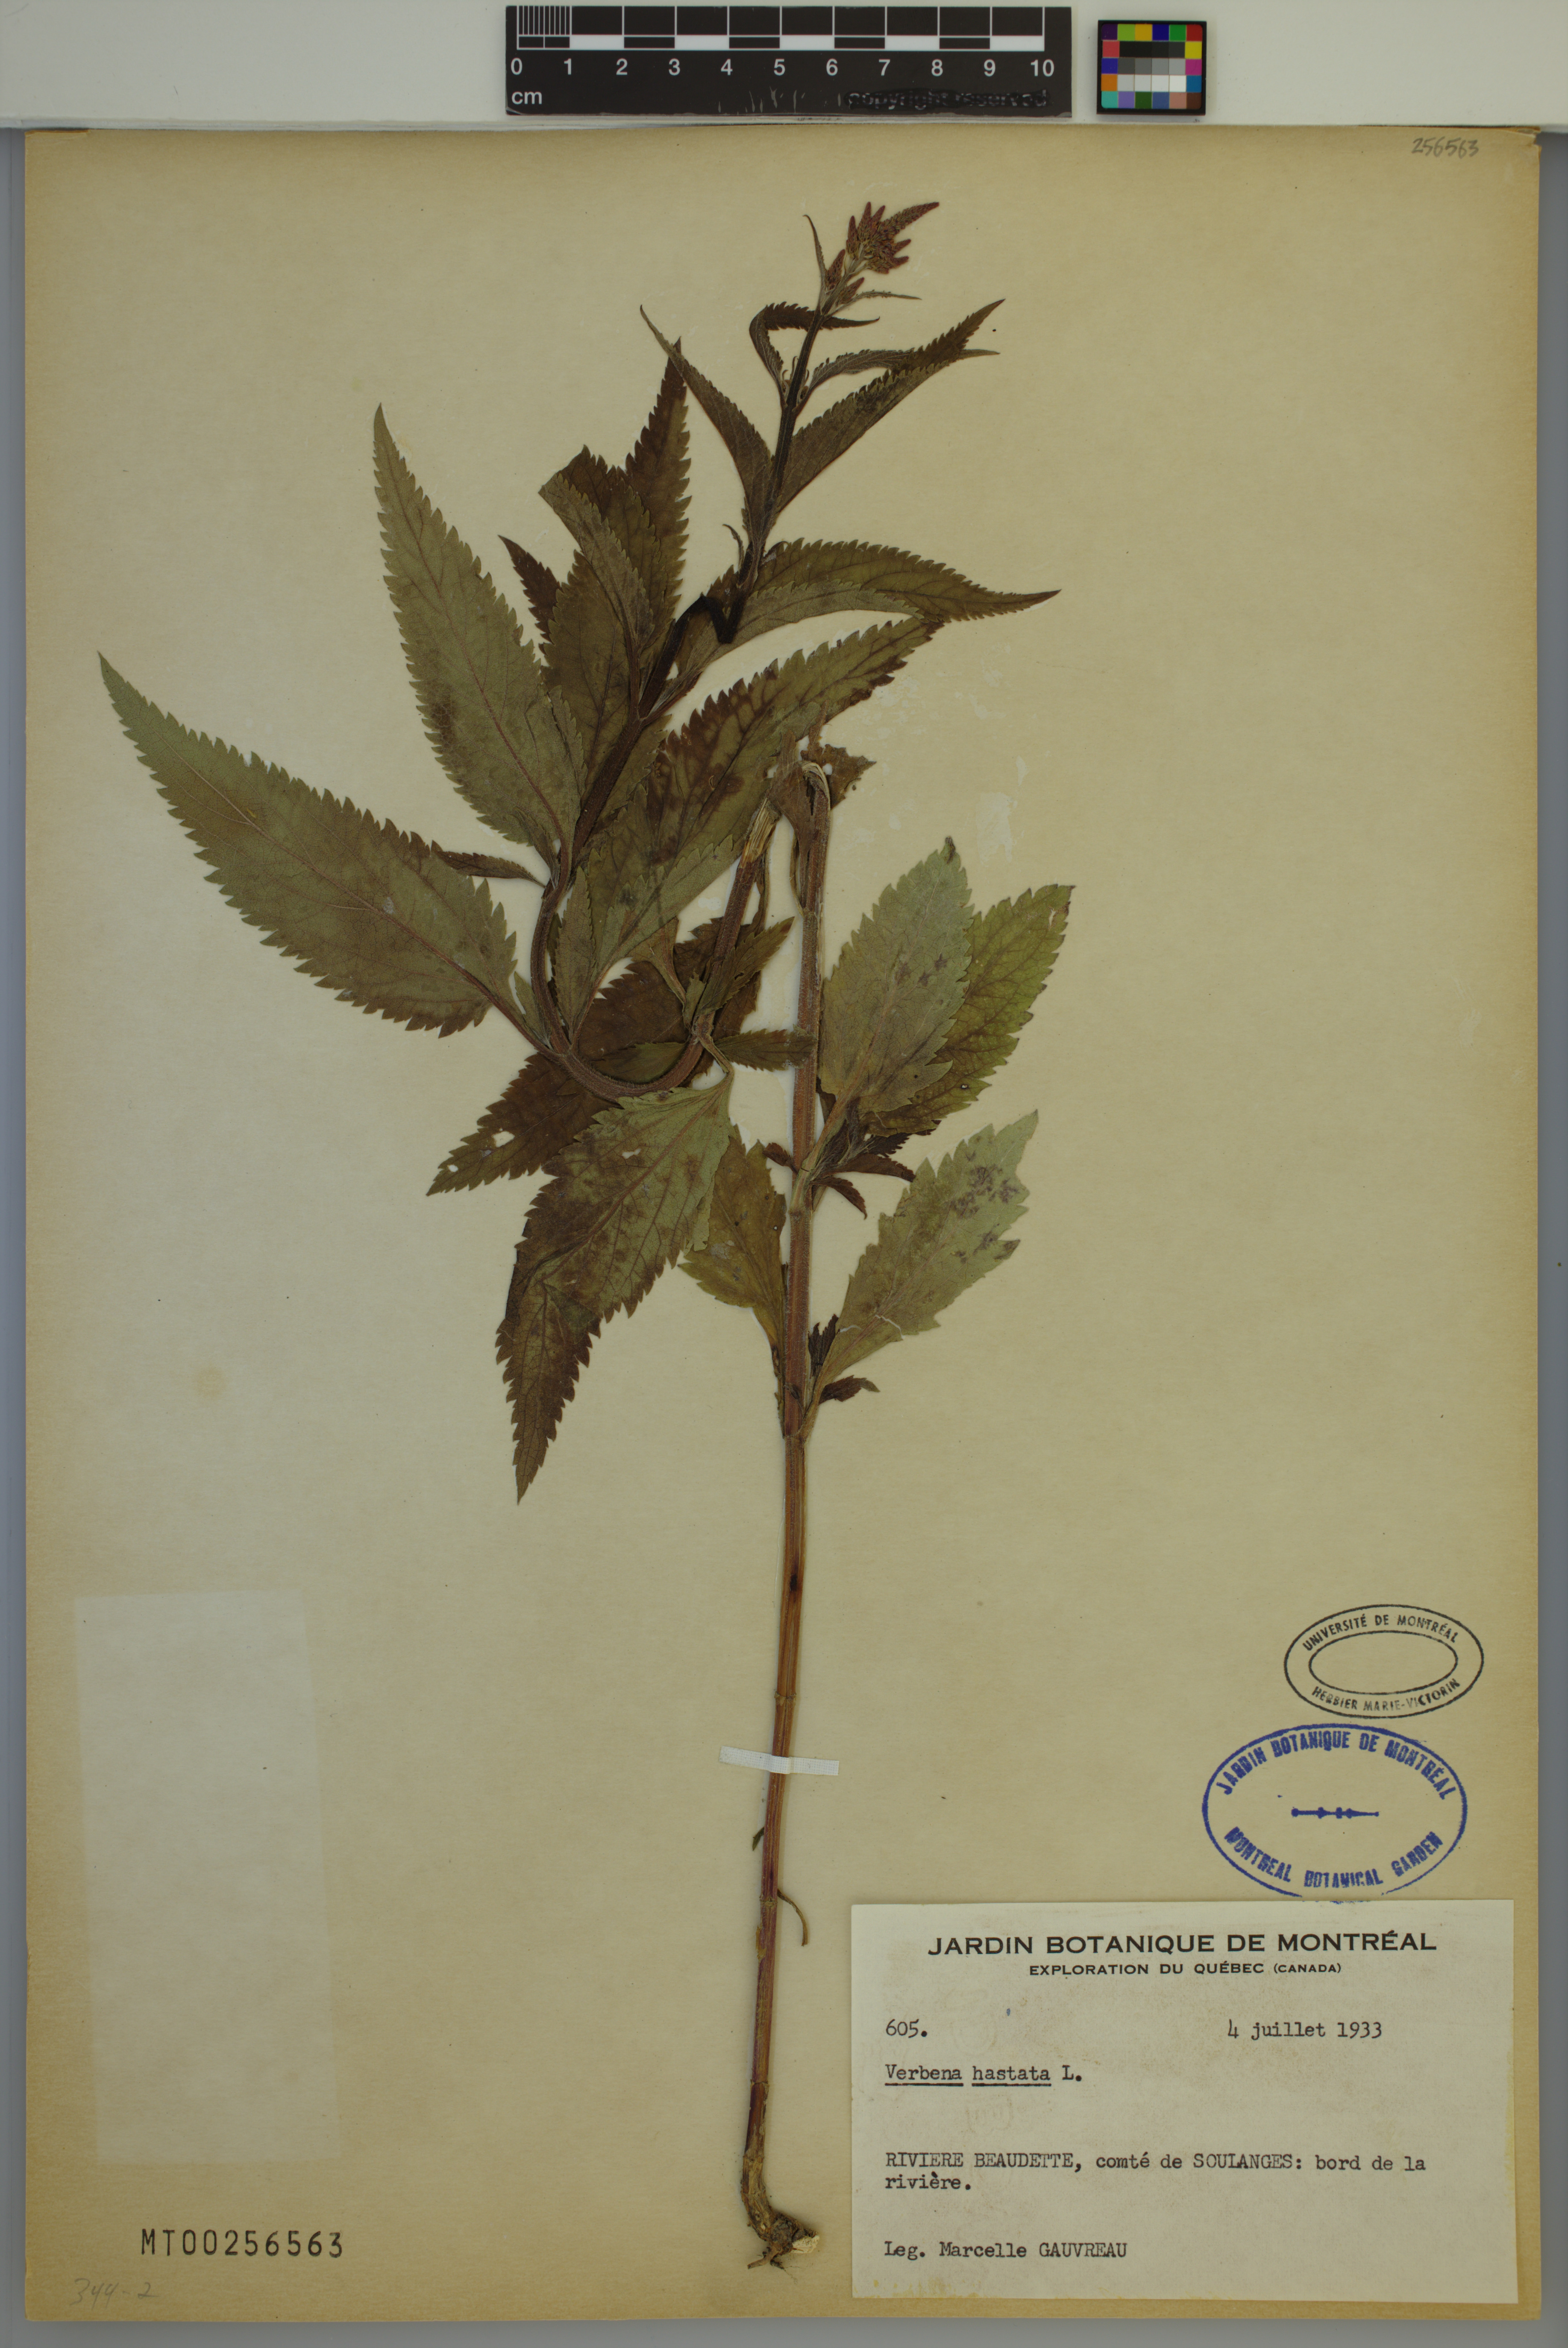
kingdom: Plantae
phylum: Tracheophyta
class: Magnoliopsida
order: Lamiales
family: Verbenaceae
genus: Verbena
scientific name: Verbena hastata
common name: American blue vervain
